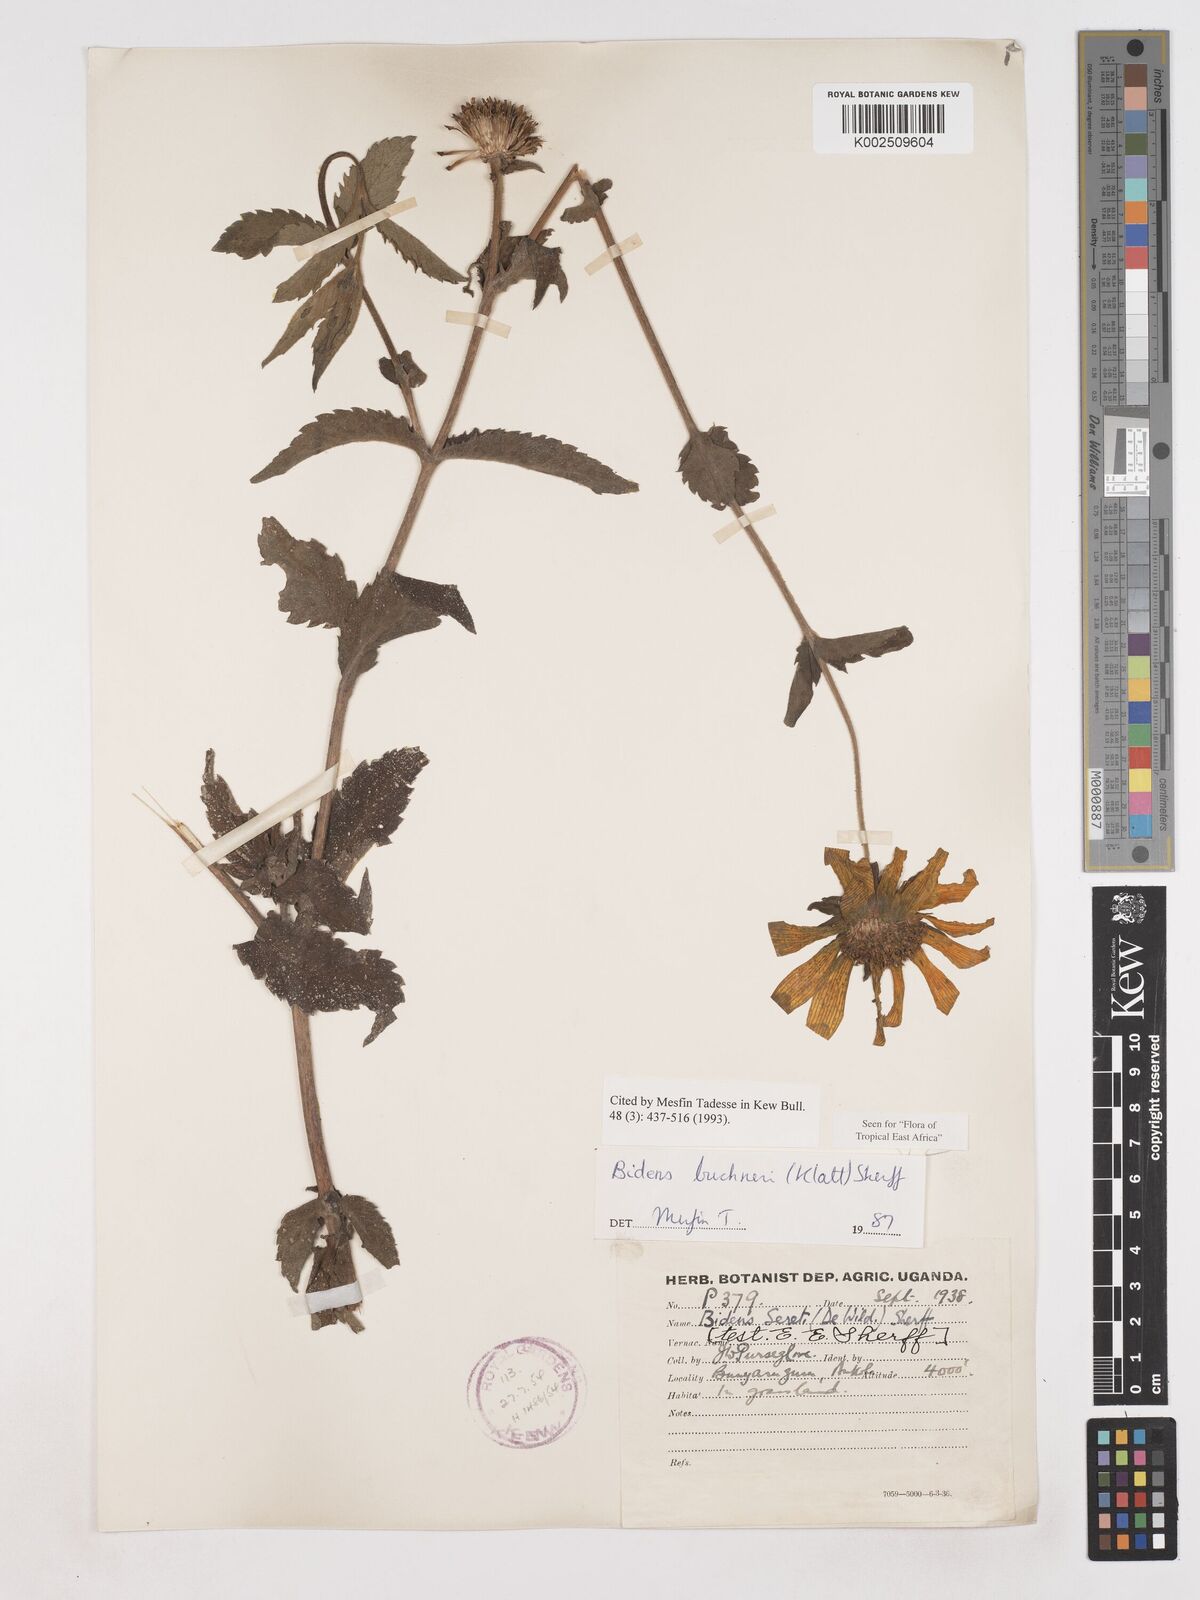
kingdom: Plantae
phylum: Tracheophyta
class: Magnoliopsida
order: Asterales
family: Asteraceae
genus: Bidens
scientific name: Bidens buchneri
